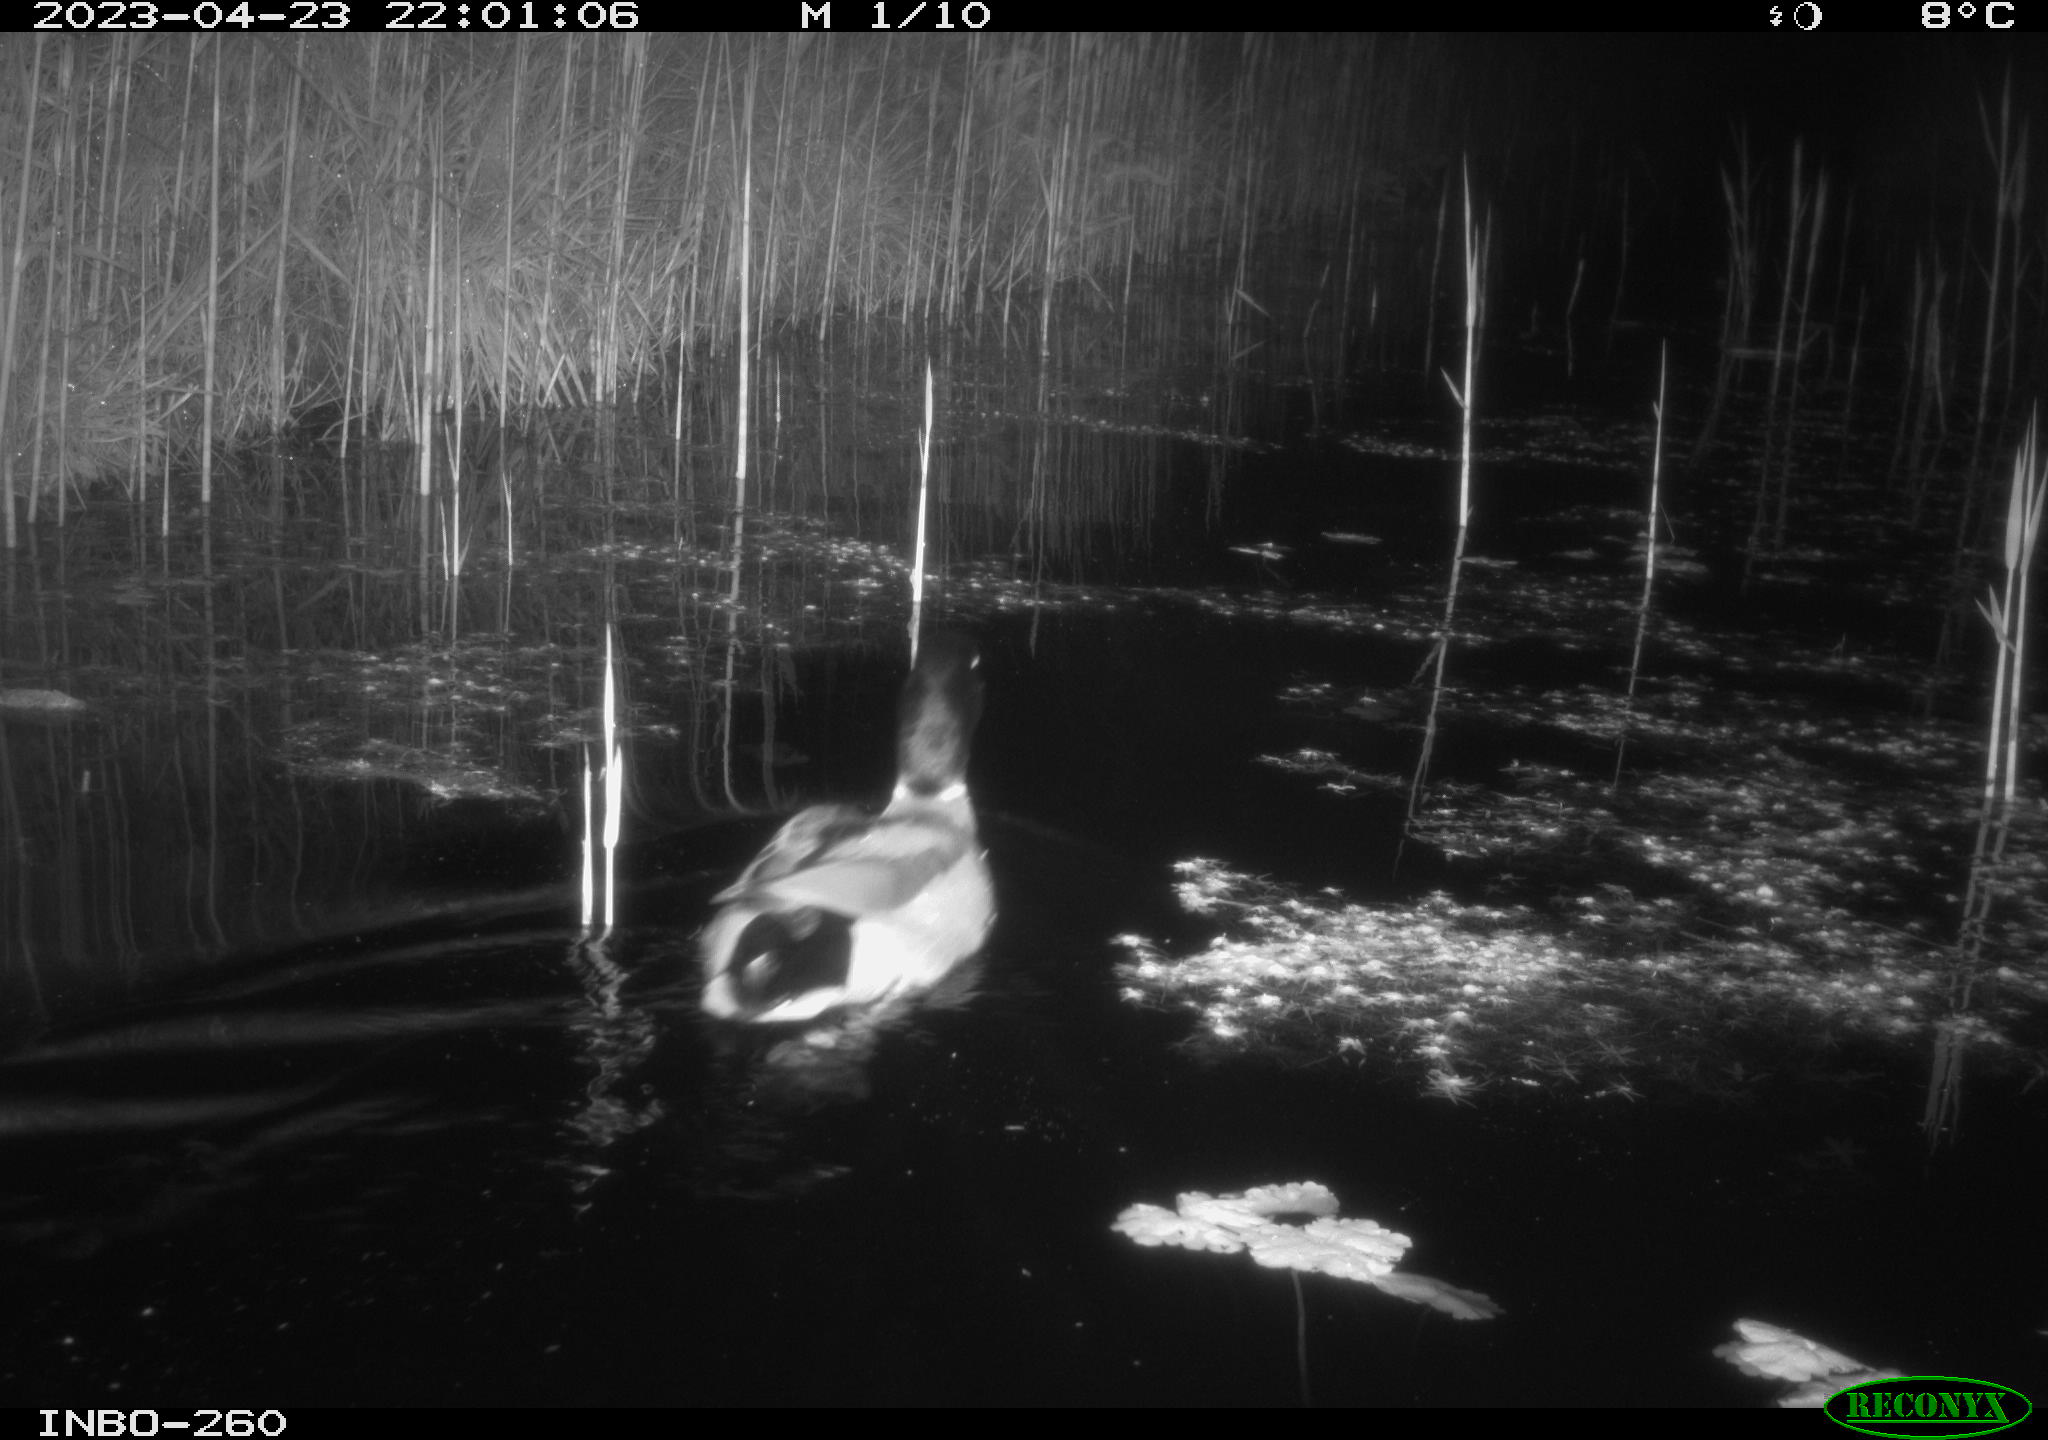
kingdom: Animalia
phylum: Chordata
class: Aves
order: Anseriformes
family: Anatidae
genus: Anas
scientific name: Anas
